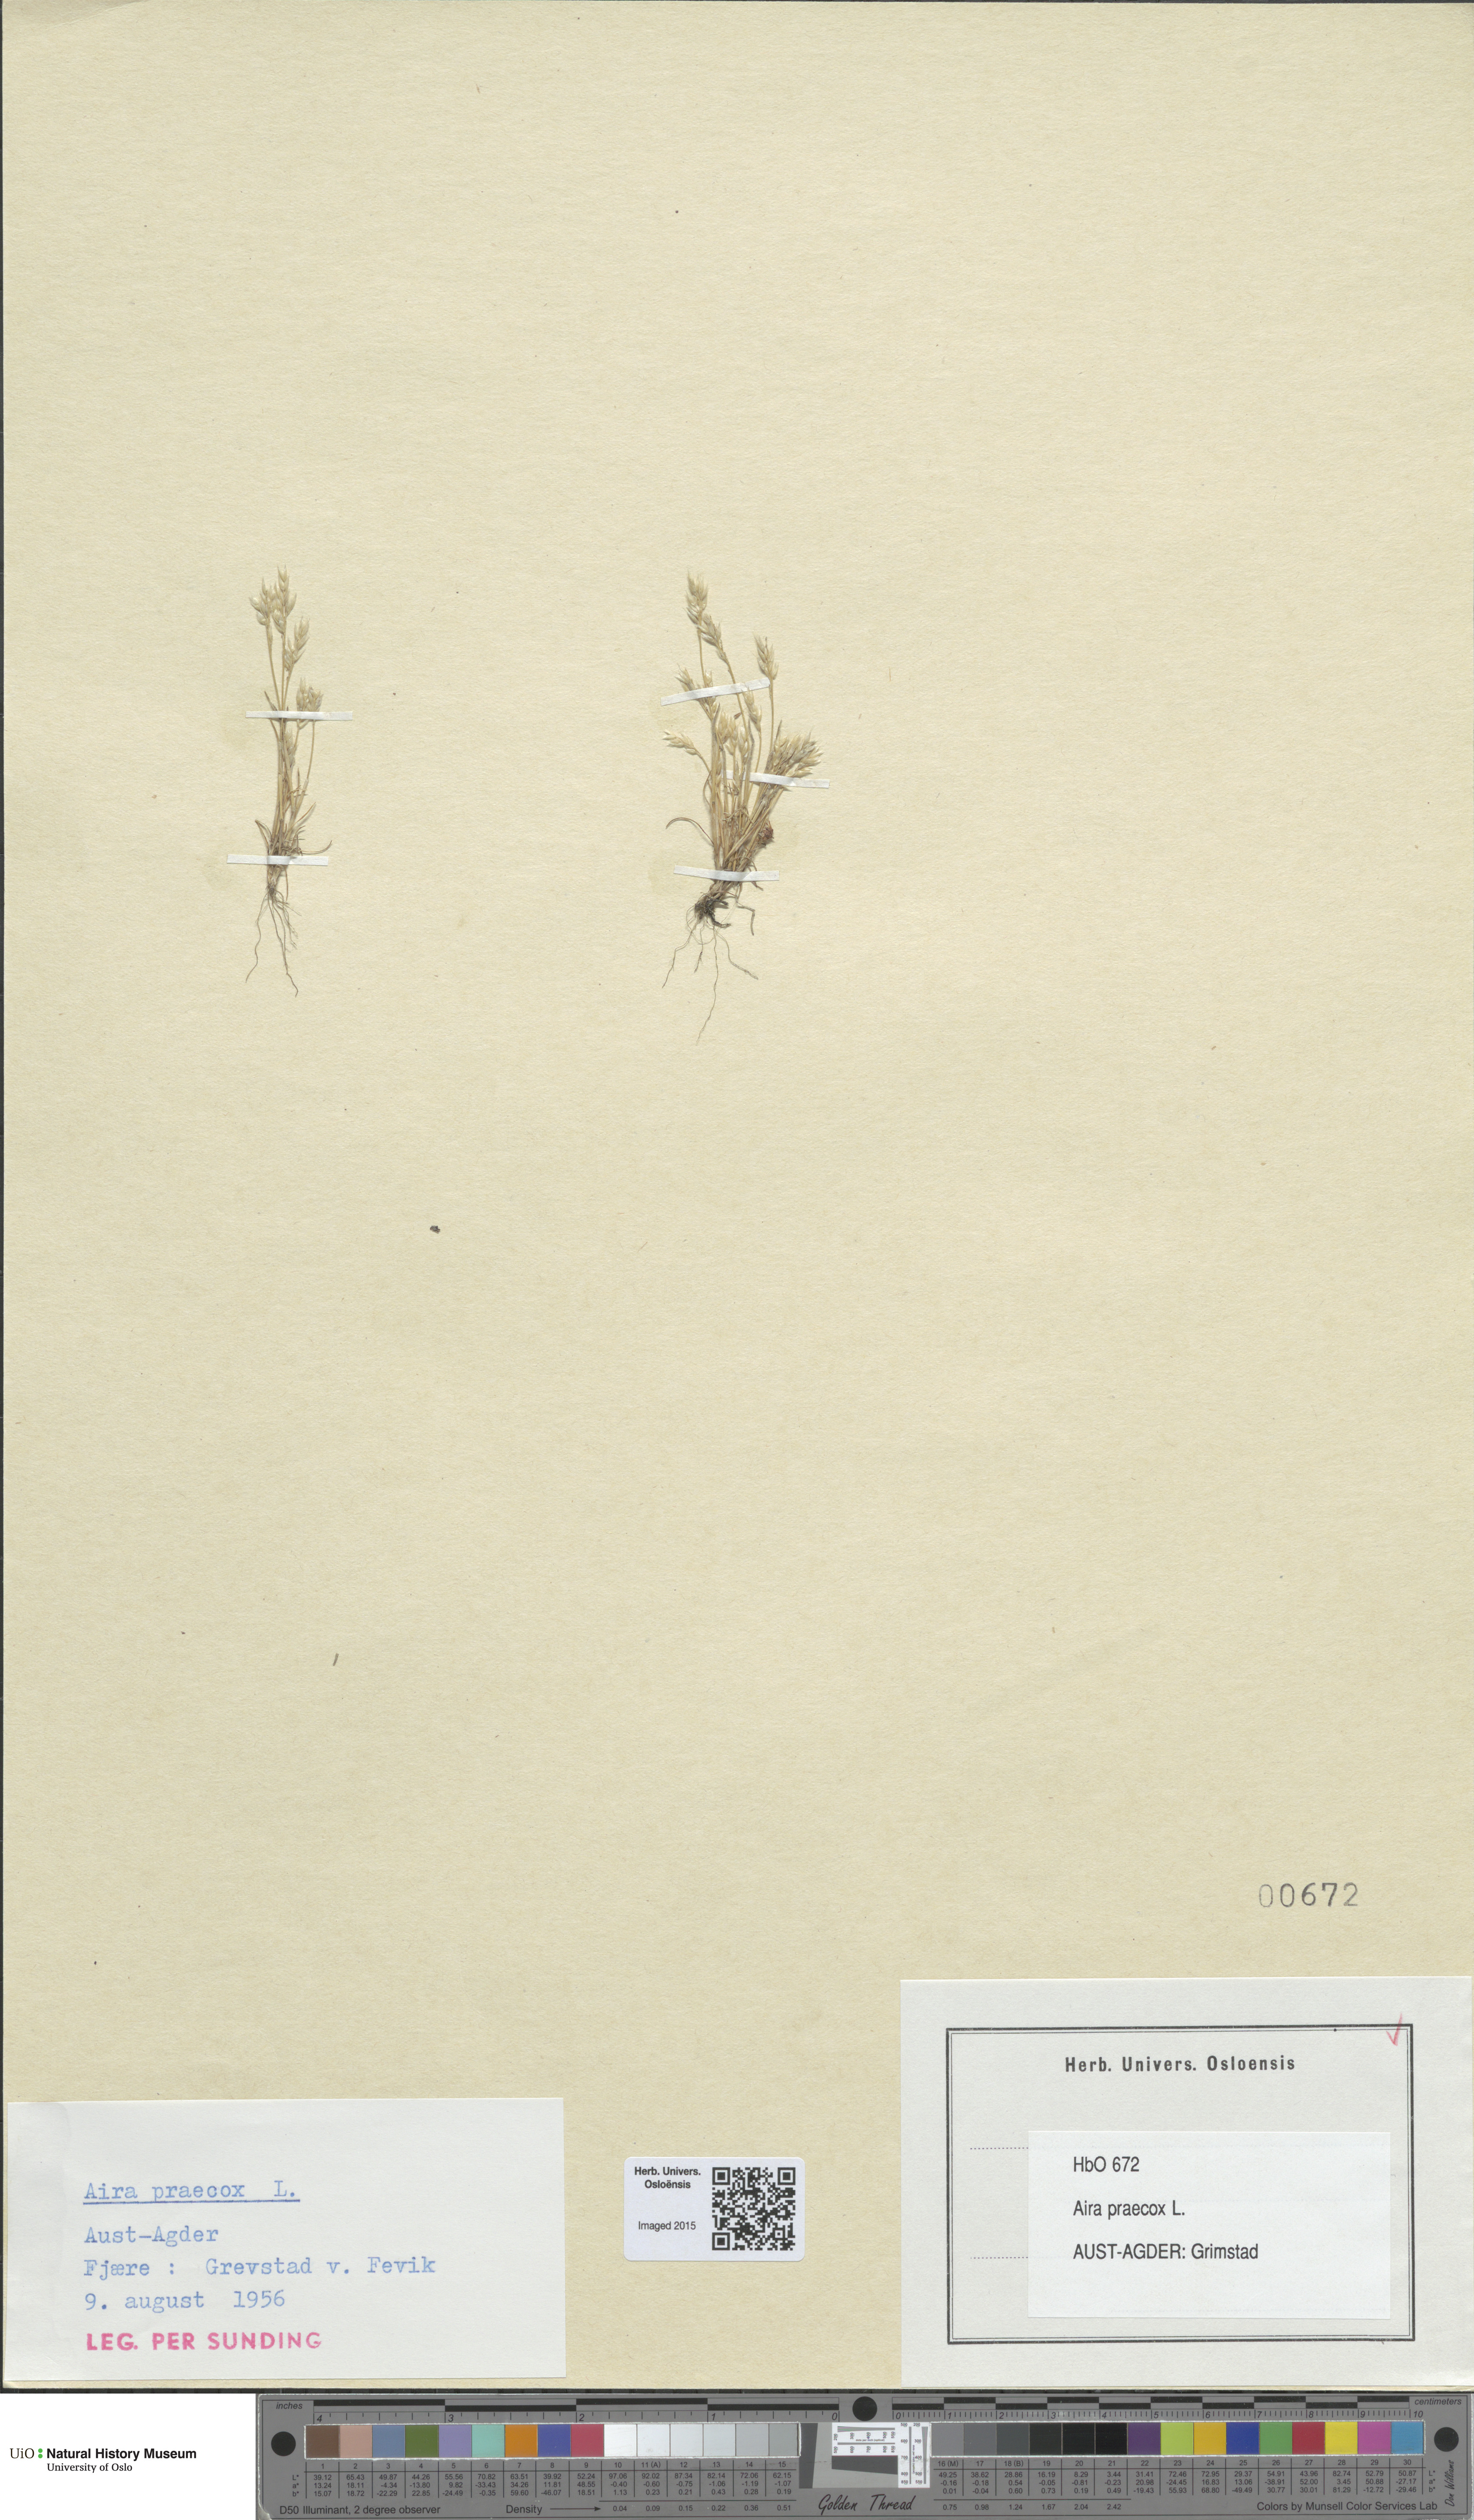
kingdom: Plantae
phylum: Tracheophyta
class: Liliopsida
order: Poales
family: Poaceae
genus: Aira
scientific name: Aira praecox
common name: Early hair-grass
